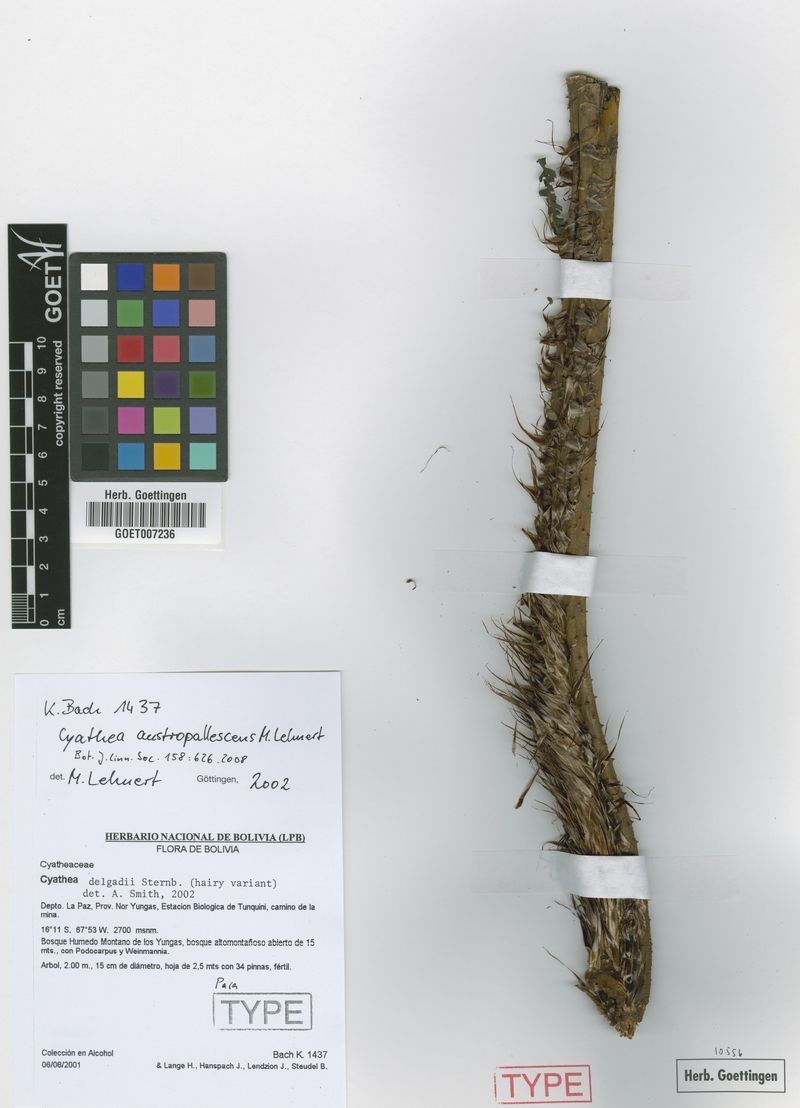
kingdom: Plantae
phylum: Tracheophyta
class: Polypodiopsida
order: Cyatheales
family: Cyatheaceae
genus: Cyathea
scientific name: Cyathea austropallescens
